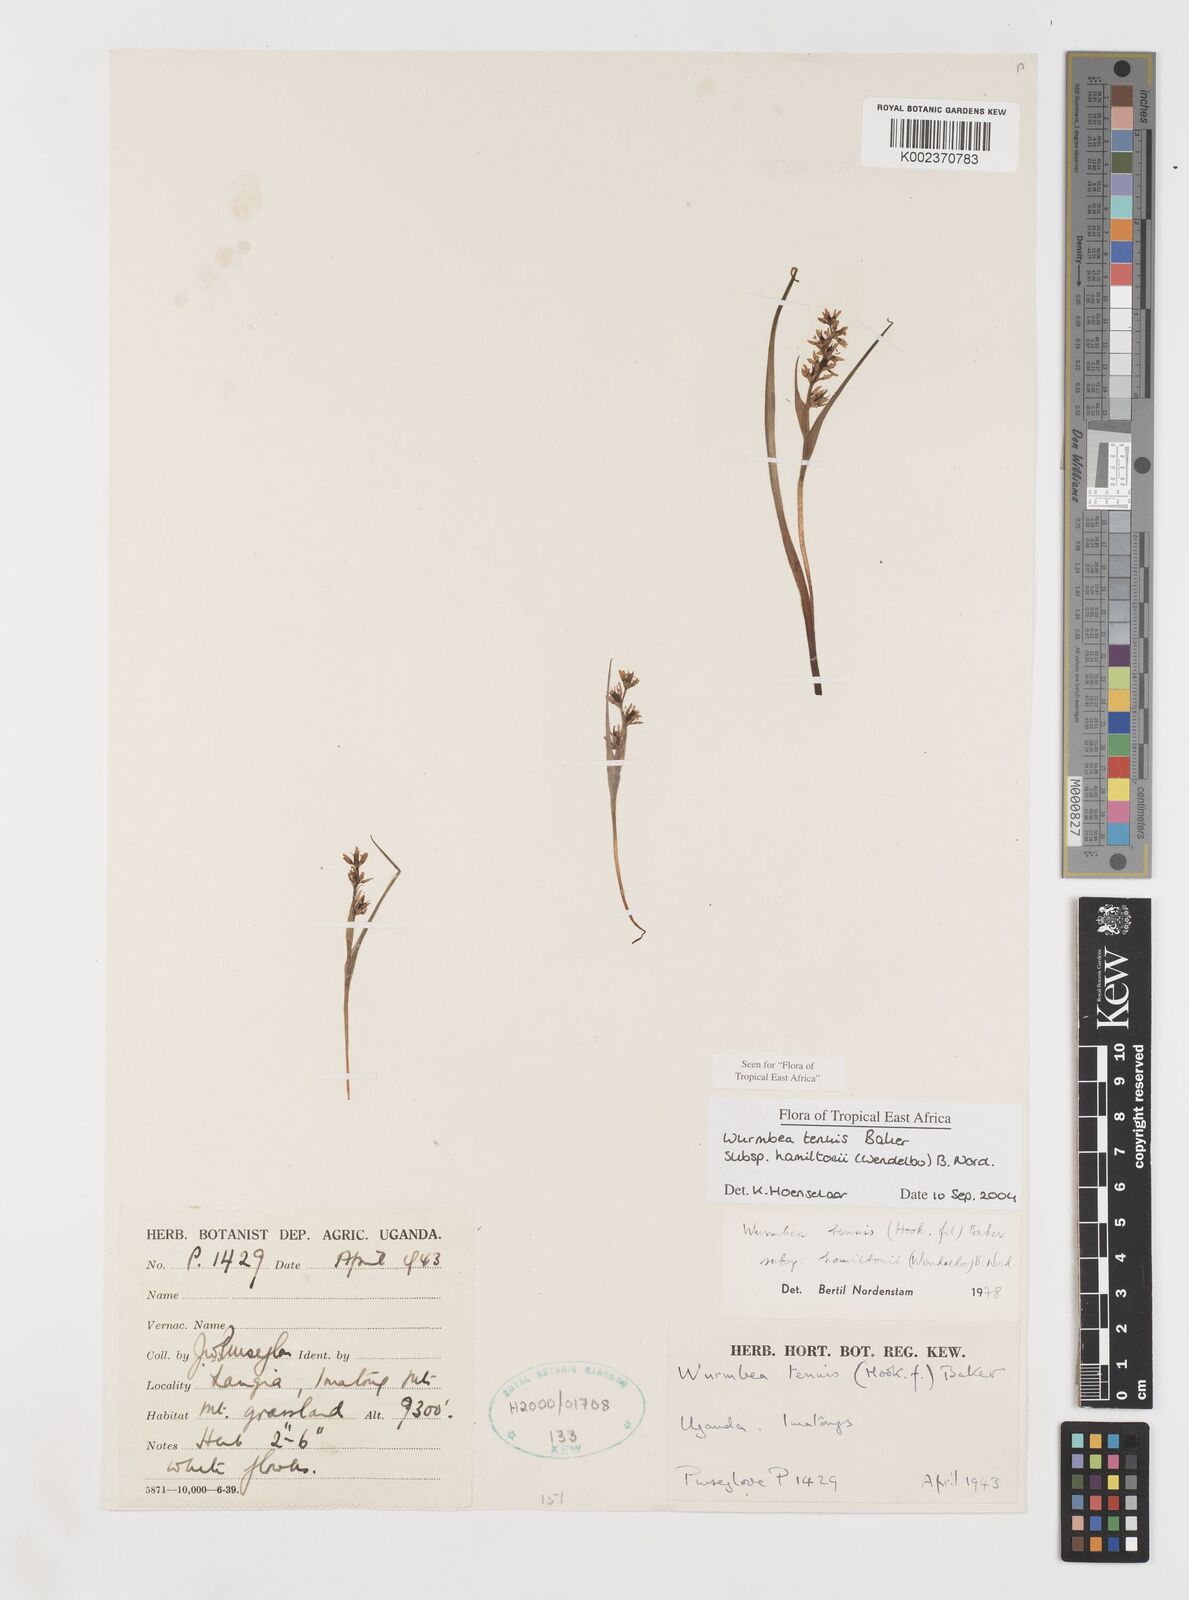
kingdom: Plantae
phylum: Tracheophyta
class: Liliopsida
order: Liliales
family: Colchicaceae
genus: Wurmbea
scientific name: Wurmbea tenuis
